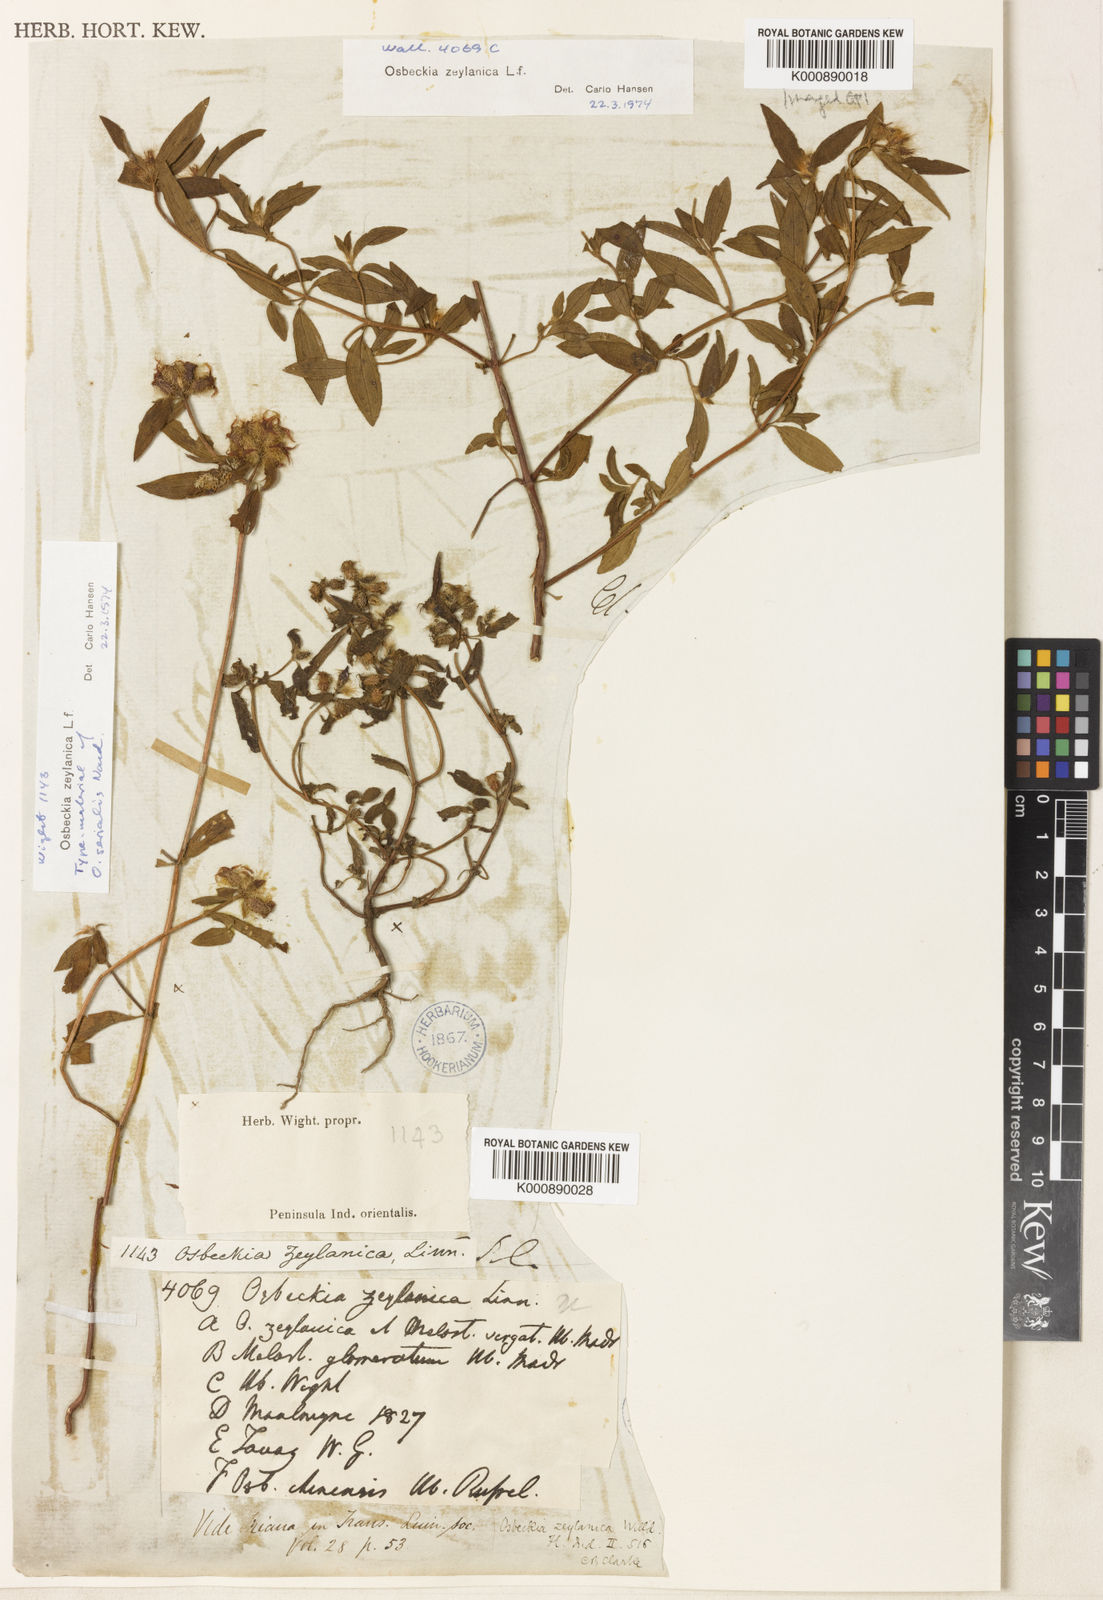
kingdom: Plantae
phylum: Tracheophyta
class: Magnoliopsida
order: Myrtales
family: Melastomataceae
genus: Osbeckia
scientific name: Osbeckia zeylanica
